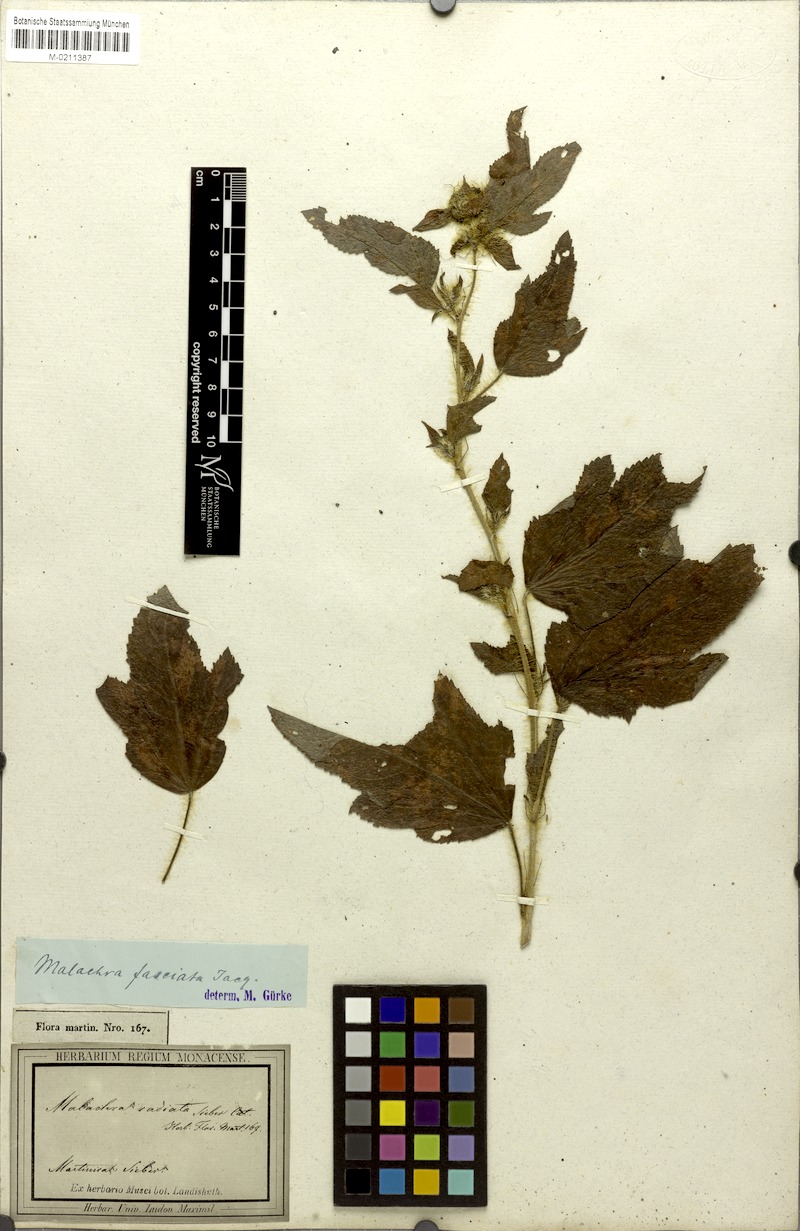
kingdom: Plantae
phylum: Tracheophyta
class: Magnoliopsida
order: Malvales
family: Malvaceae
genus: Malachra
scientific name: Malachra fasciata
